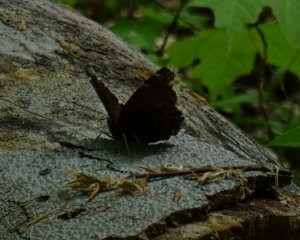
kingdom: Animalia
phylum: Arthropoda
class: Insecta
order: Lepidoptera
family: Nymphalidae
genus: Nymphalis
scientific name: Nymphalis antiopa
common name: Mourning Cloak
